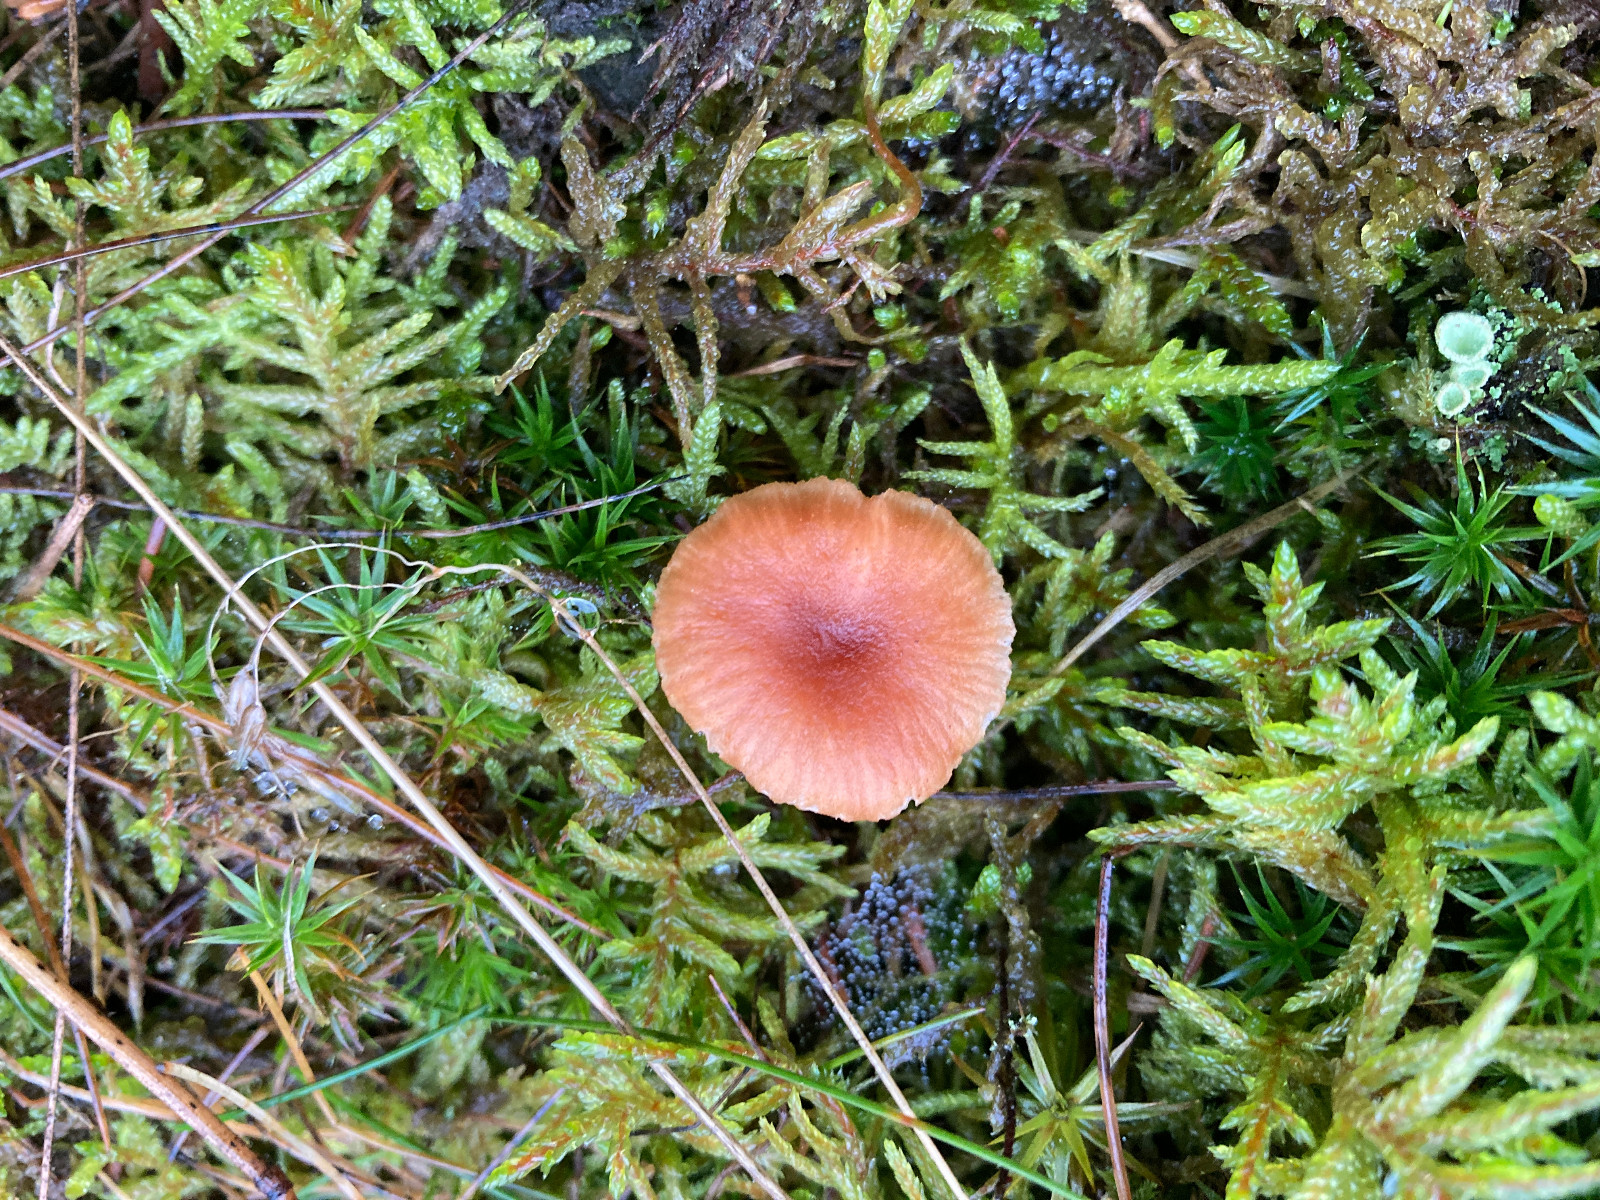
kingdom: Fungi
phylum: Basidiomycota
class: Agaricomycetes
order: Agaricales
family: Hydnangiaceae
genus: Laccaria
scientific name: Laccaria laccata
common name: rød ametysthat
